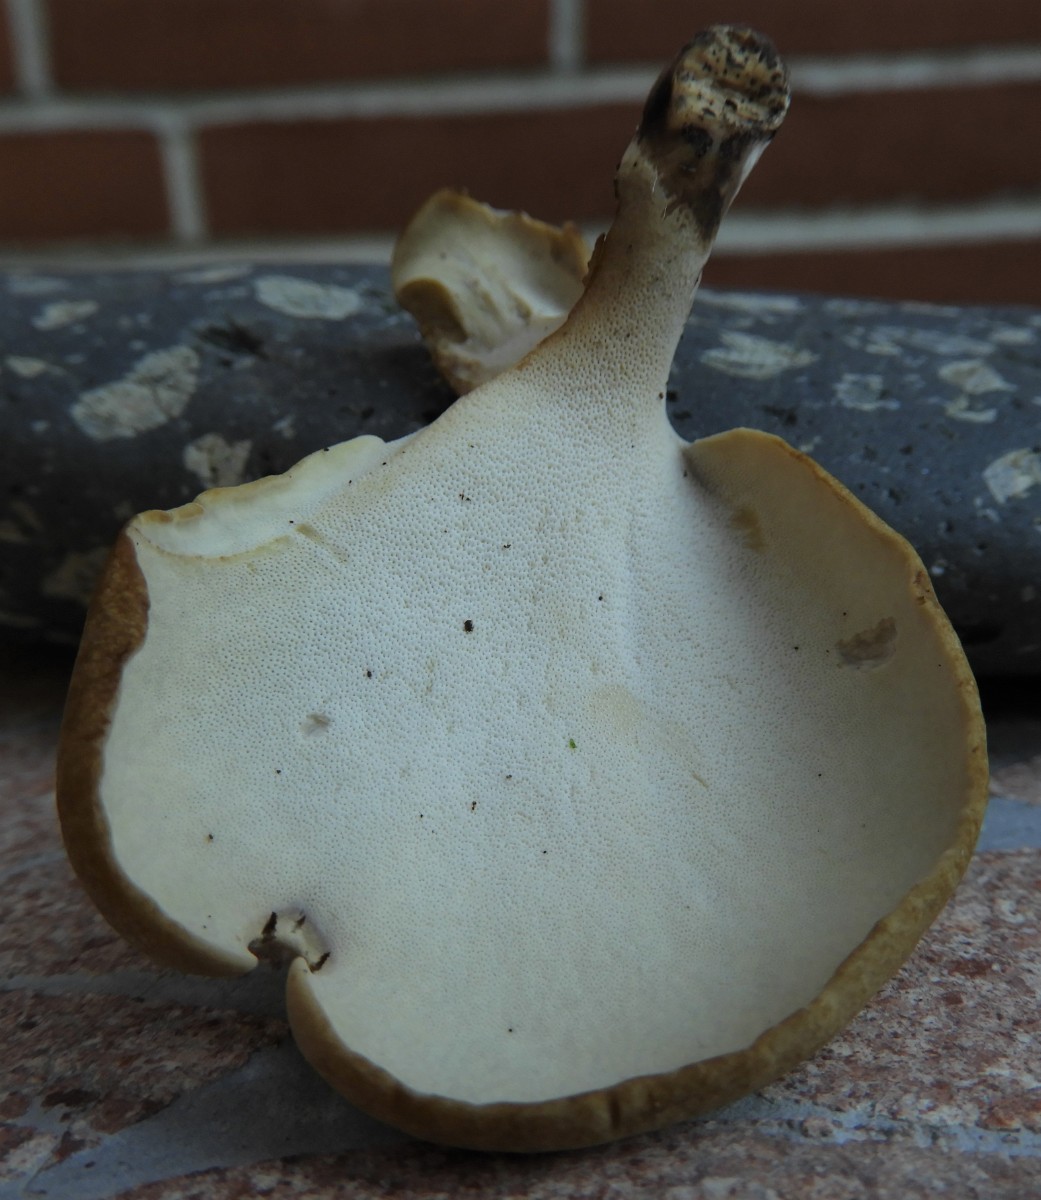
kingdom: Fungi
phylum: Basidiomycota
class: Agaricomycetes
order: Polyporales
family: Polyporaceae
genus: Cerioporus
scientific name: Cerioporus varius
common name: foranderlig stilkporesvamp
